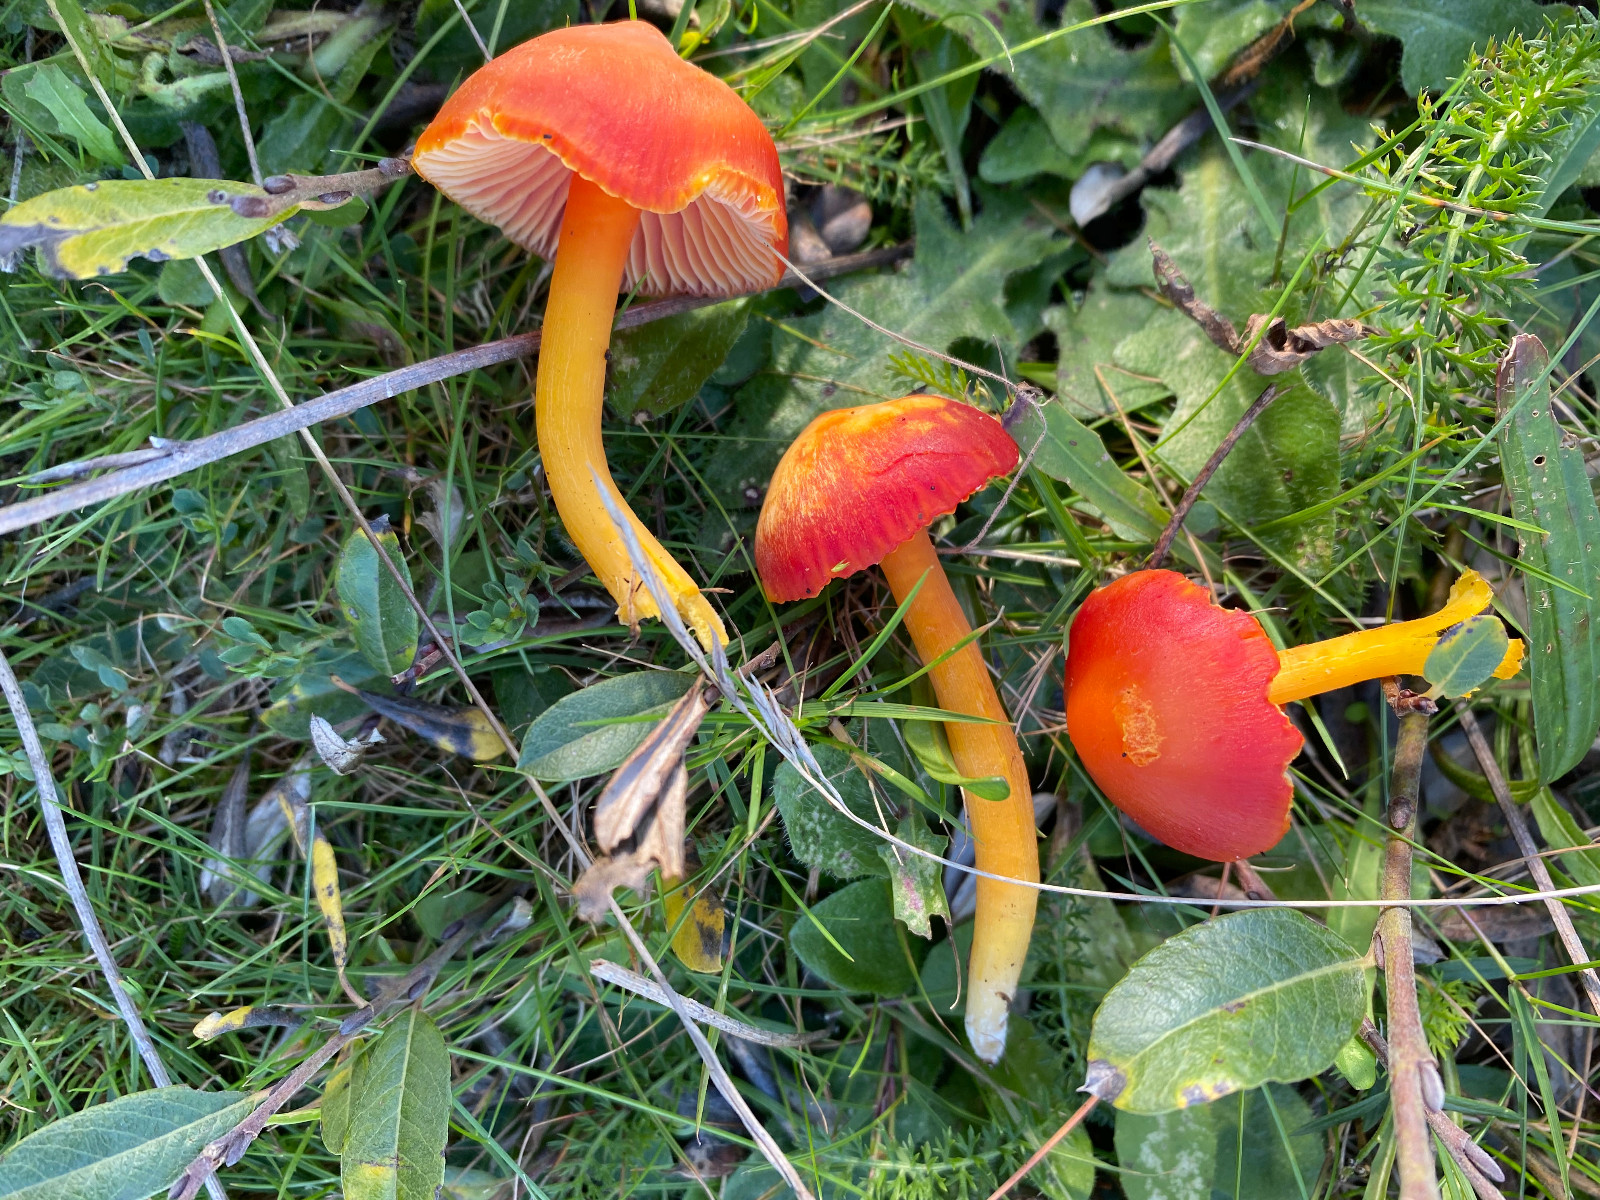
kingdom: Fungi
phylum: Basidiomycota
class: Agaricomycetes
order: Agaricales
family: Hygrophoraceae
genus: Hygrocybe
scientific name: Hygrocybe coccinea
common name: cinnober-vokshat
